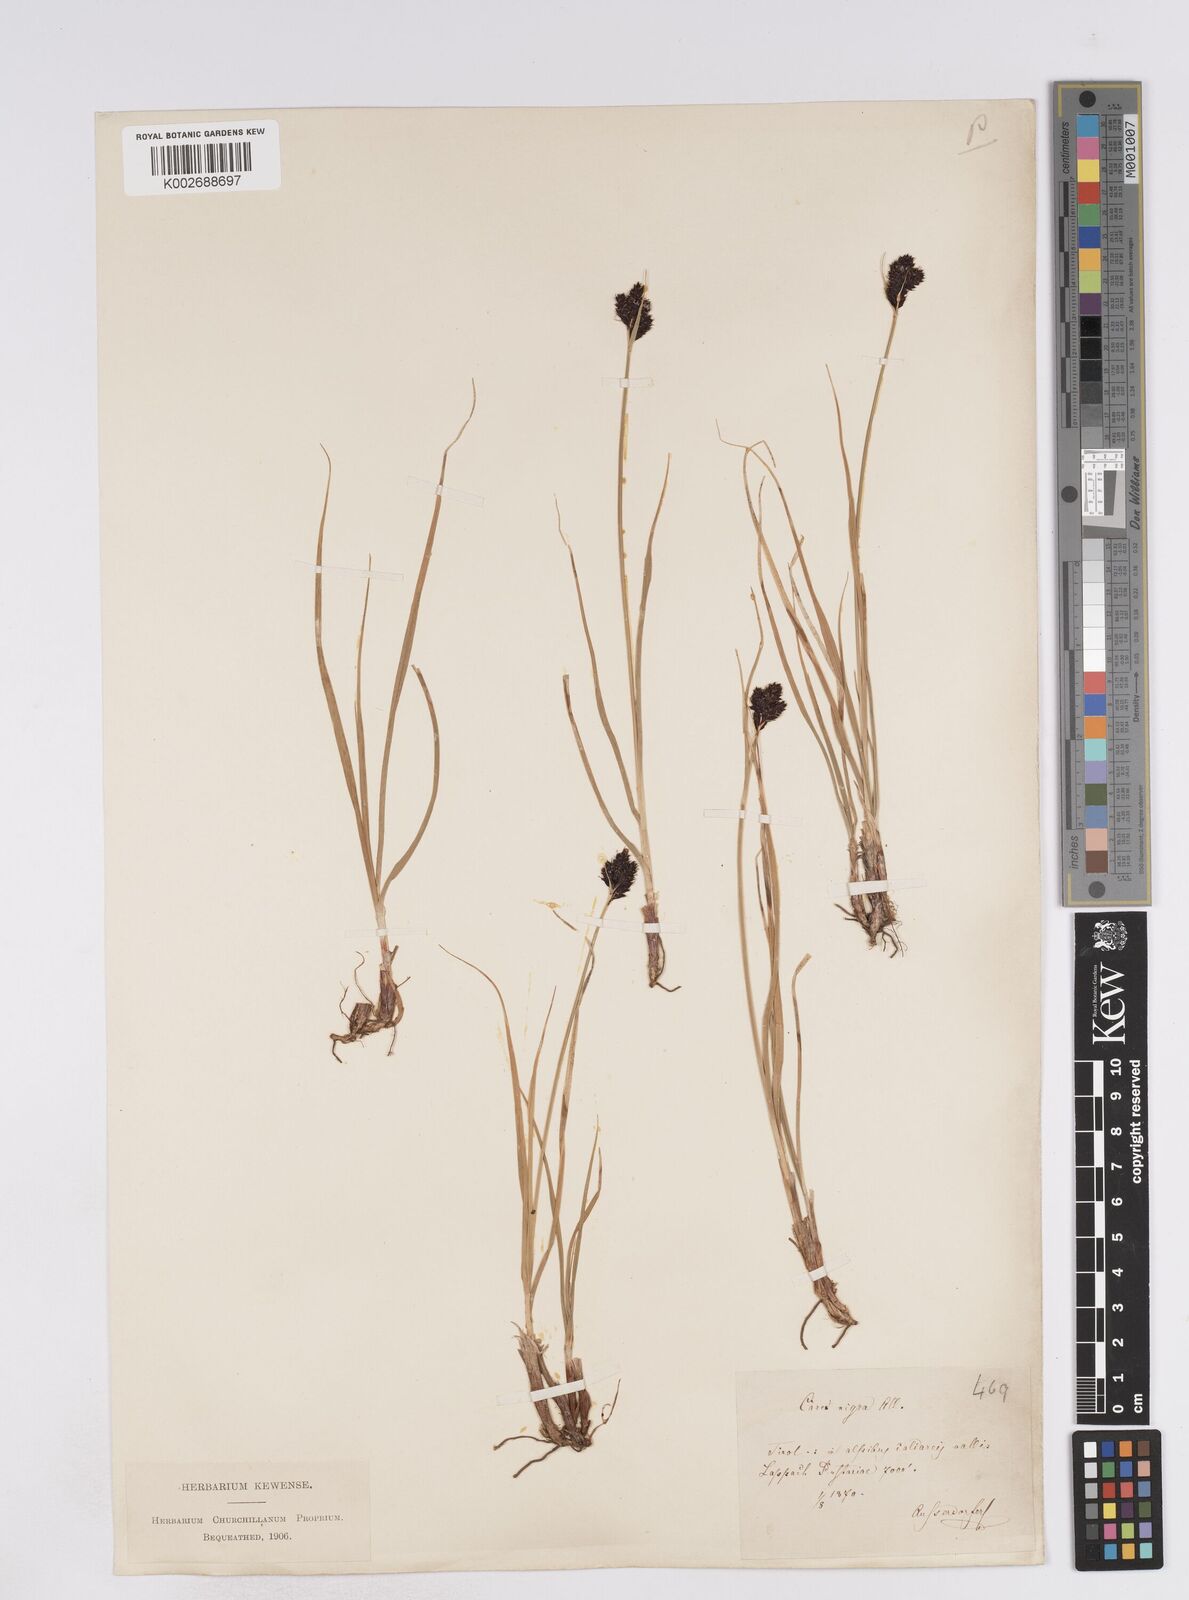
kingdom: Plantae
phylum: Tracheophyta
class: Liliopsida
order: Poales
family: Cyperaceae
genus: Carex
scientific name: Carex parviflora
